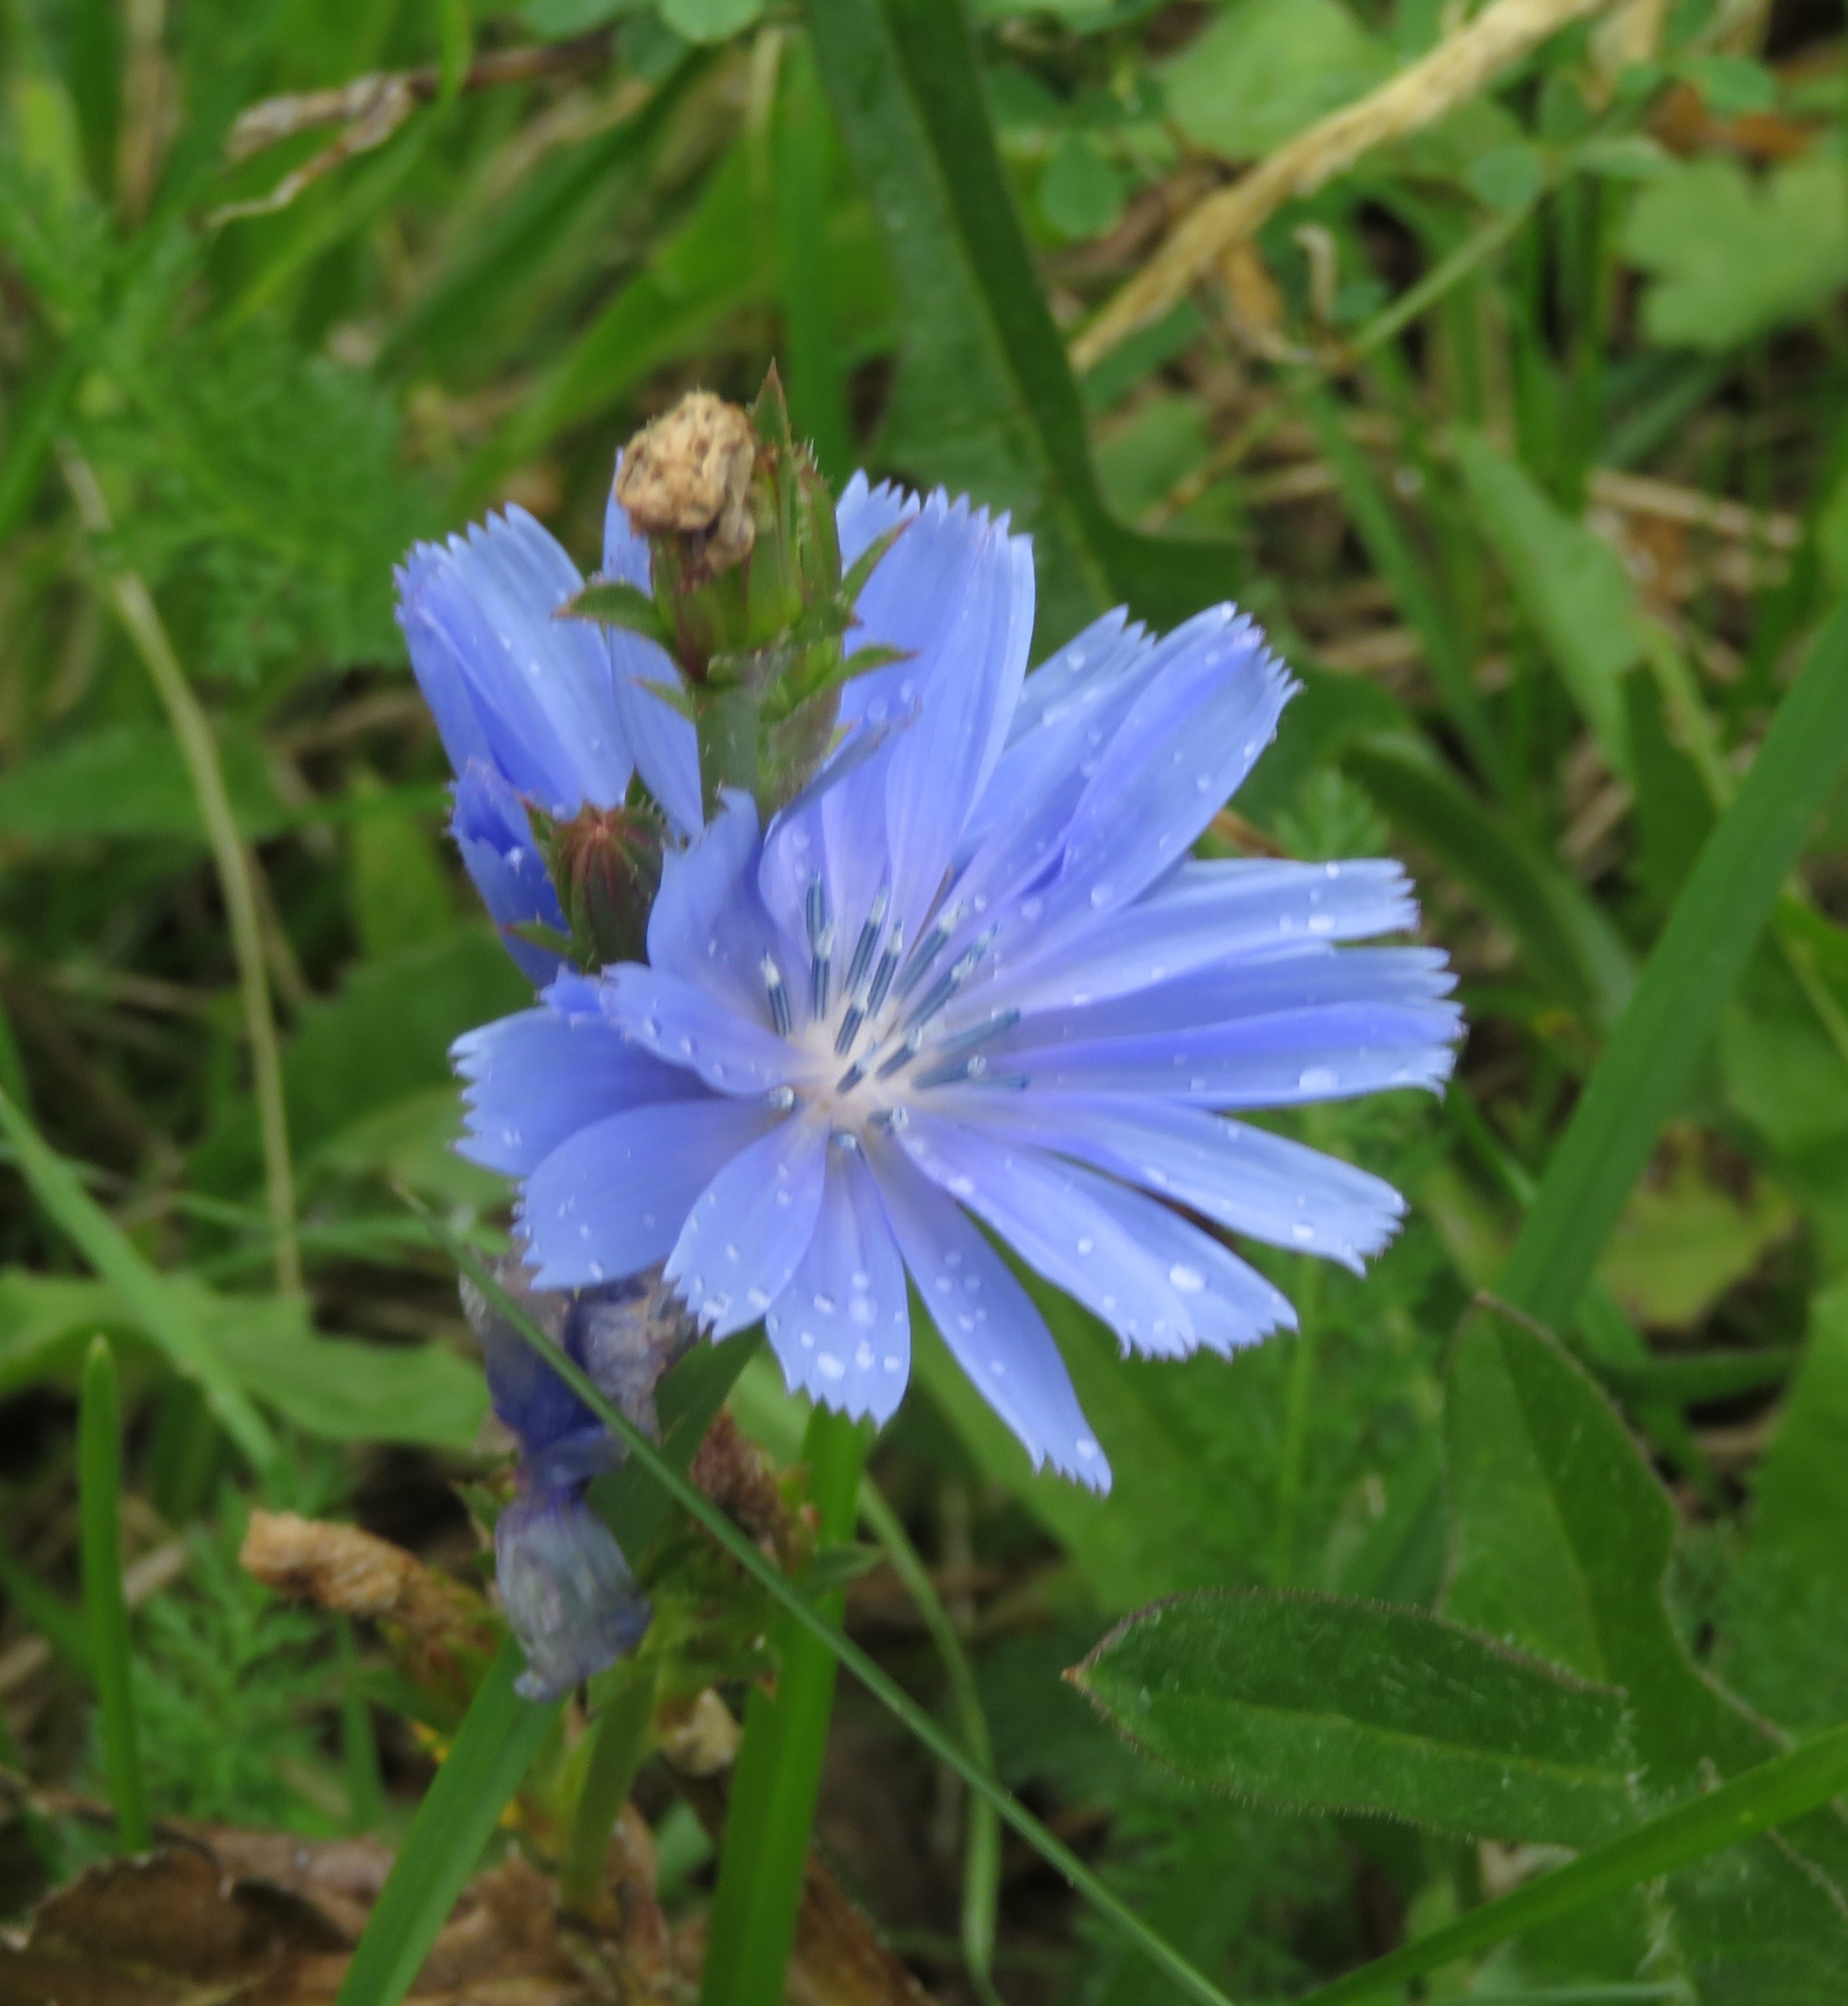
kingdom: Plantae
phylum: Tracheophyta
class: Magnoliopsida
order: Asterales
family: Asteraceae
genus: Cichorium
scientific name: Cichorium intybus
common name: Cikorie
